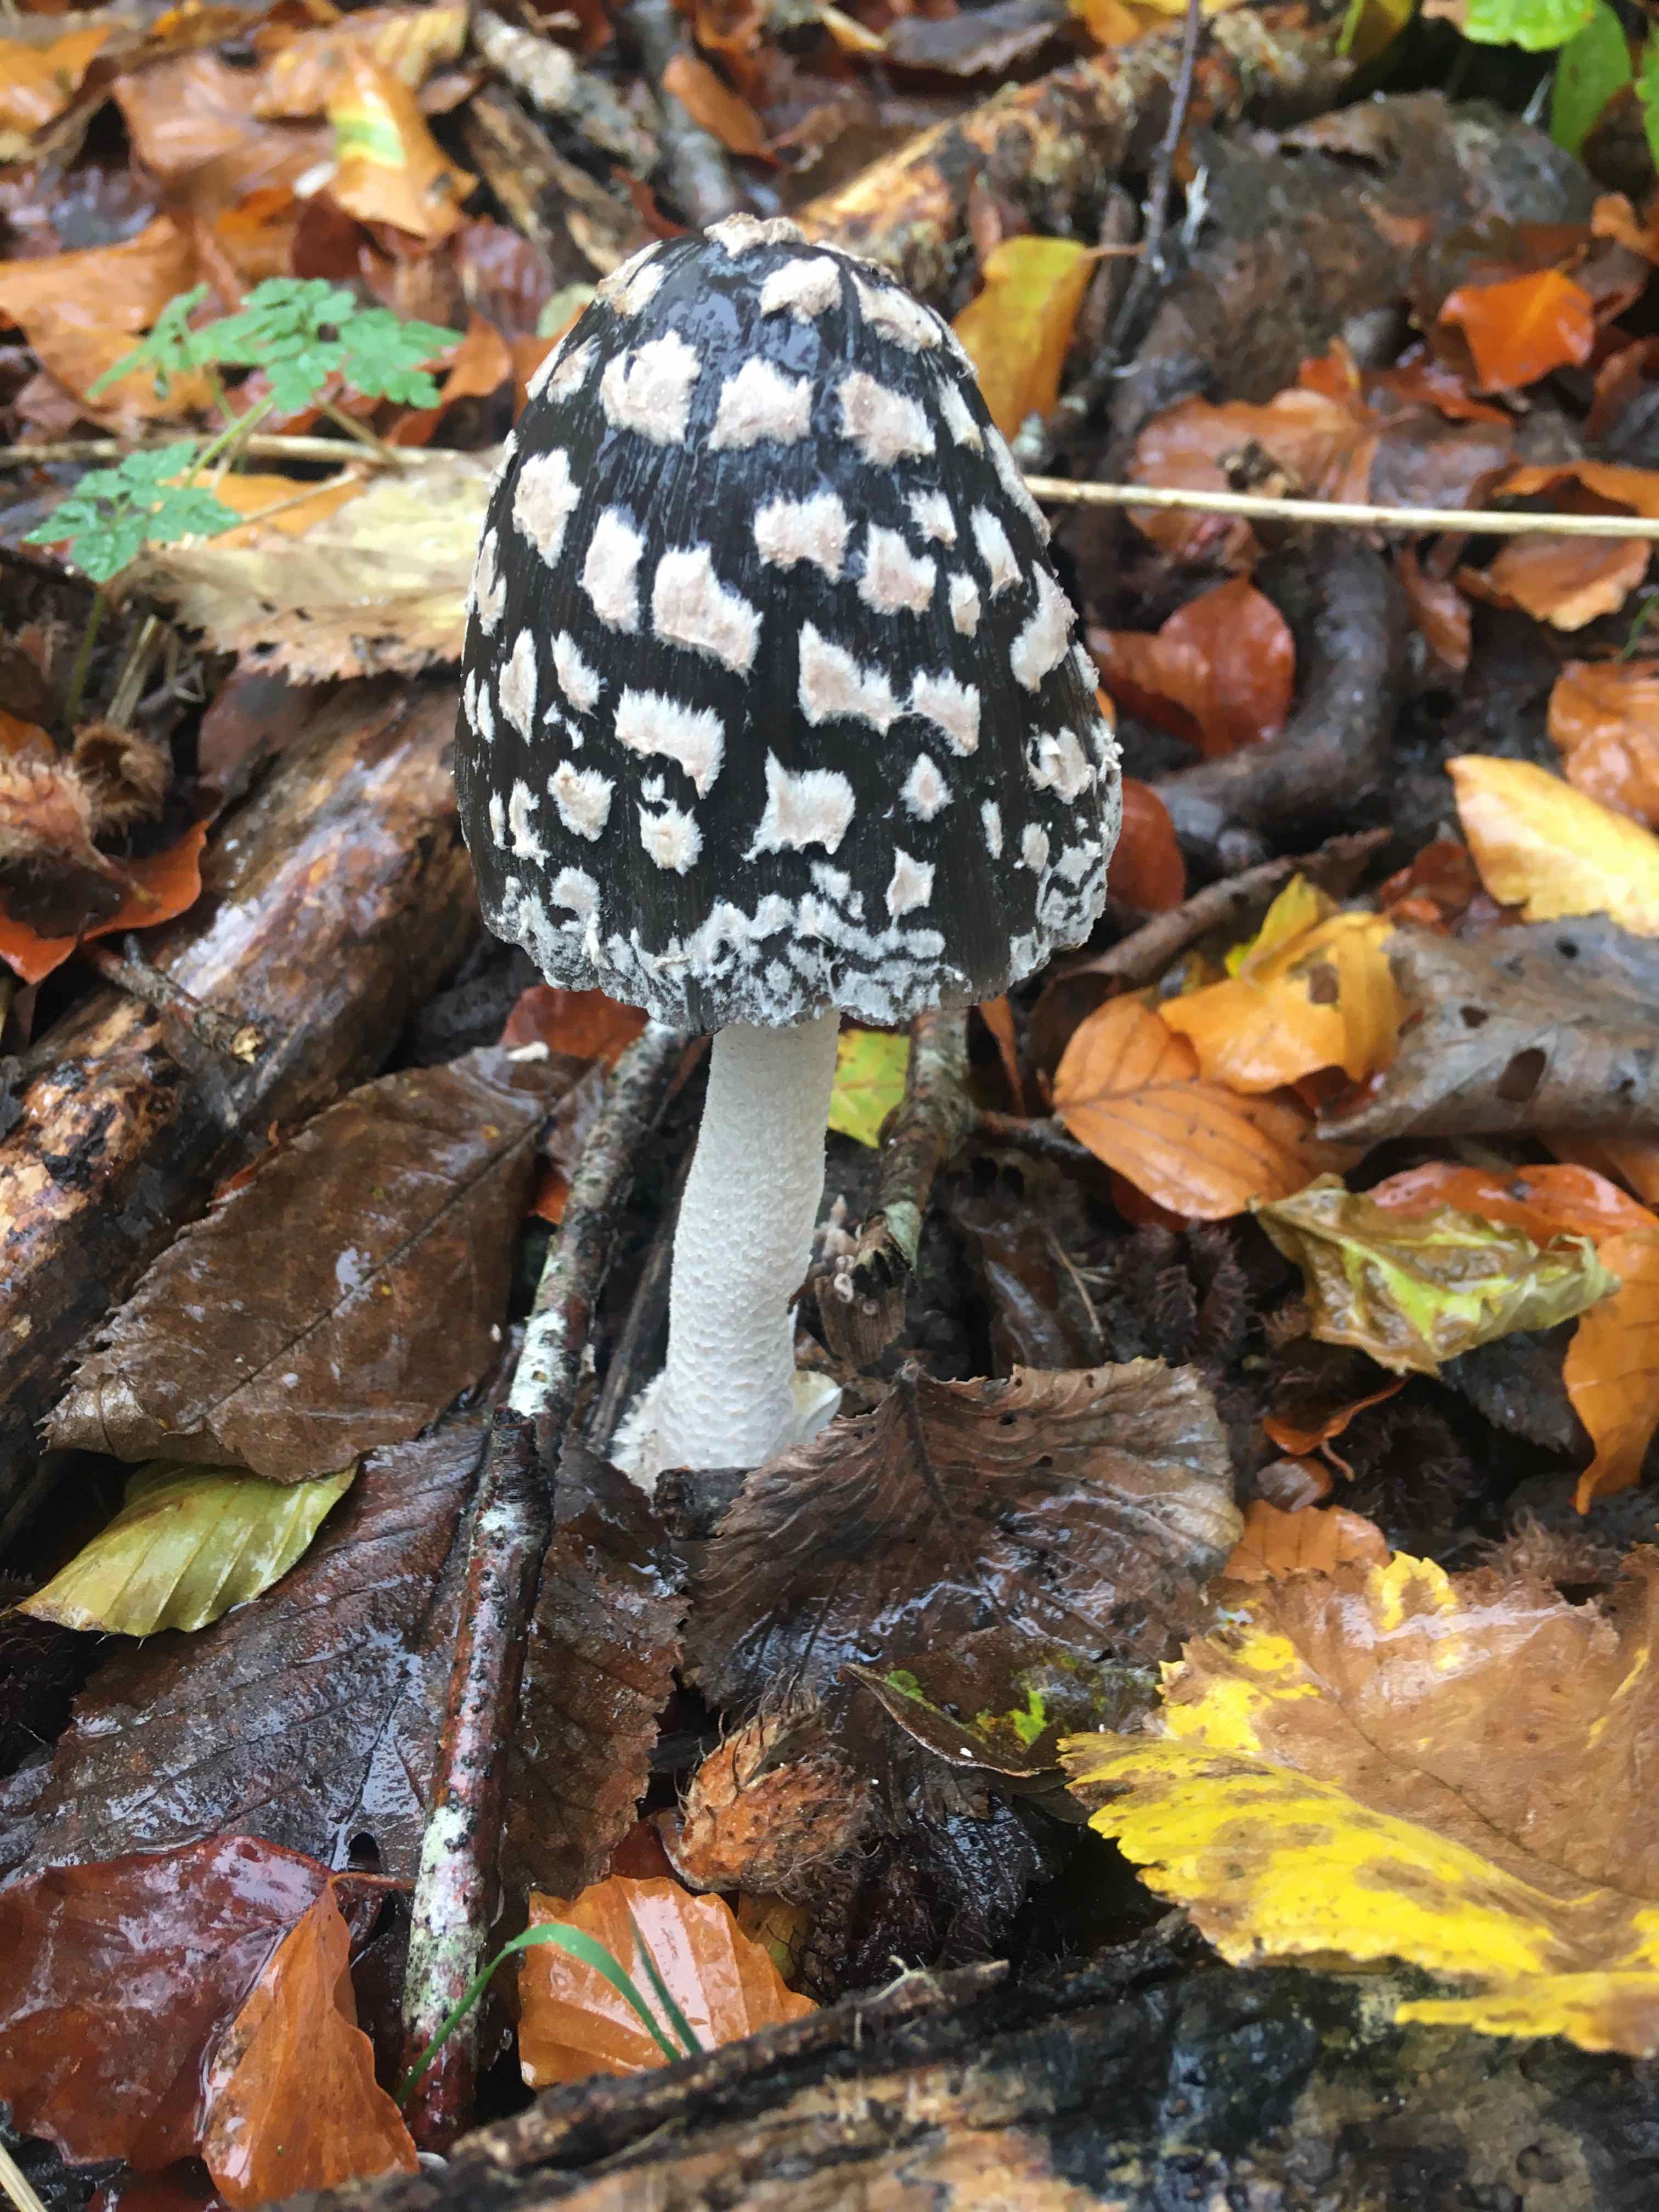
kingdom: Fungi
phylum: Basidiomycota
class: Agaricomycetes
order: Agaricales
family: Psathyrellaceae
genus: Coprinopsis
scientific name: Coprinopsis picacea
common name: skade-blækhat
